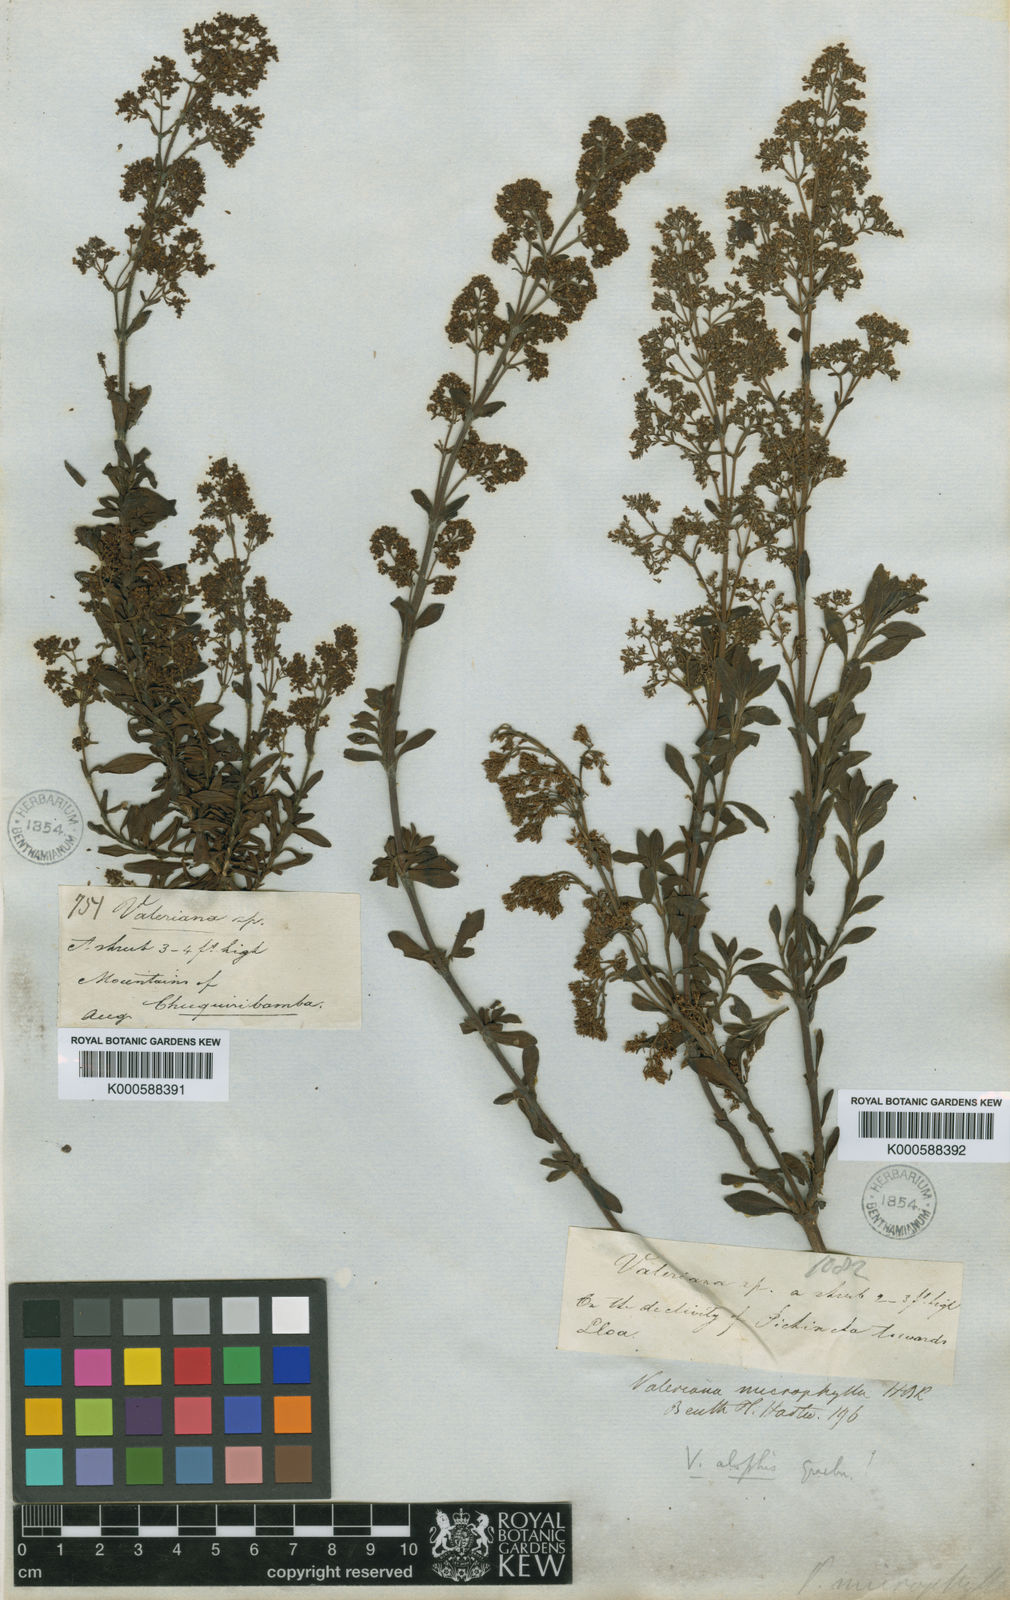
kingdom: Plantae
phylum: Tracheophyta
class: Magnoliopsida
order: Dipsacales
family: Caprifoliaceae
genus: Valeriana
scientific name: Valeriana microphylla
